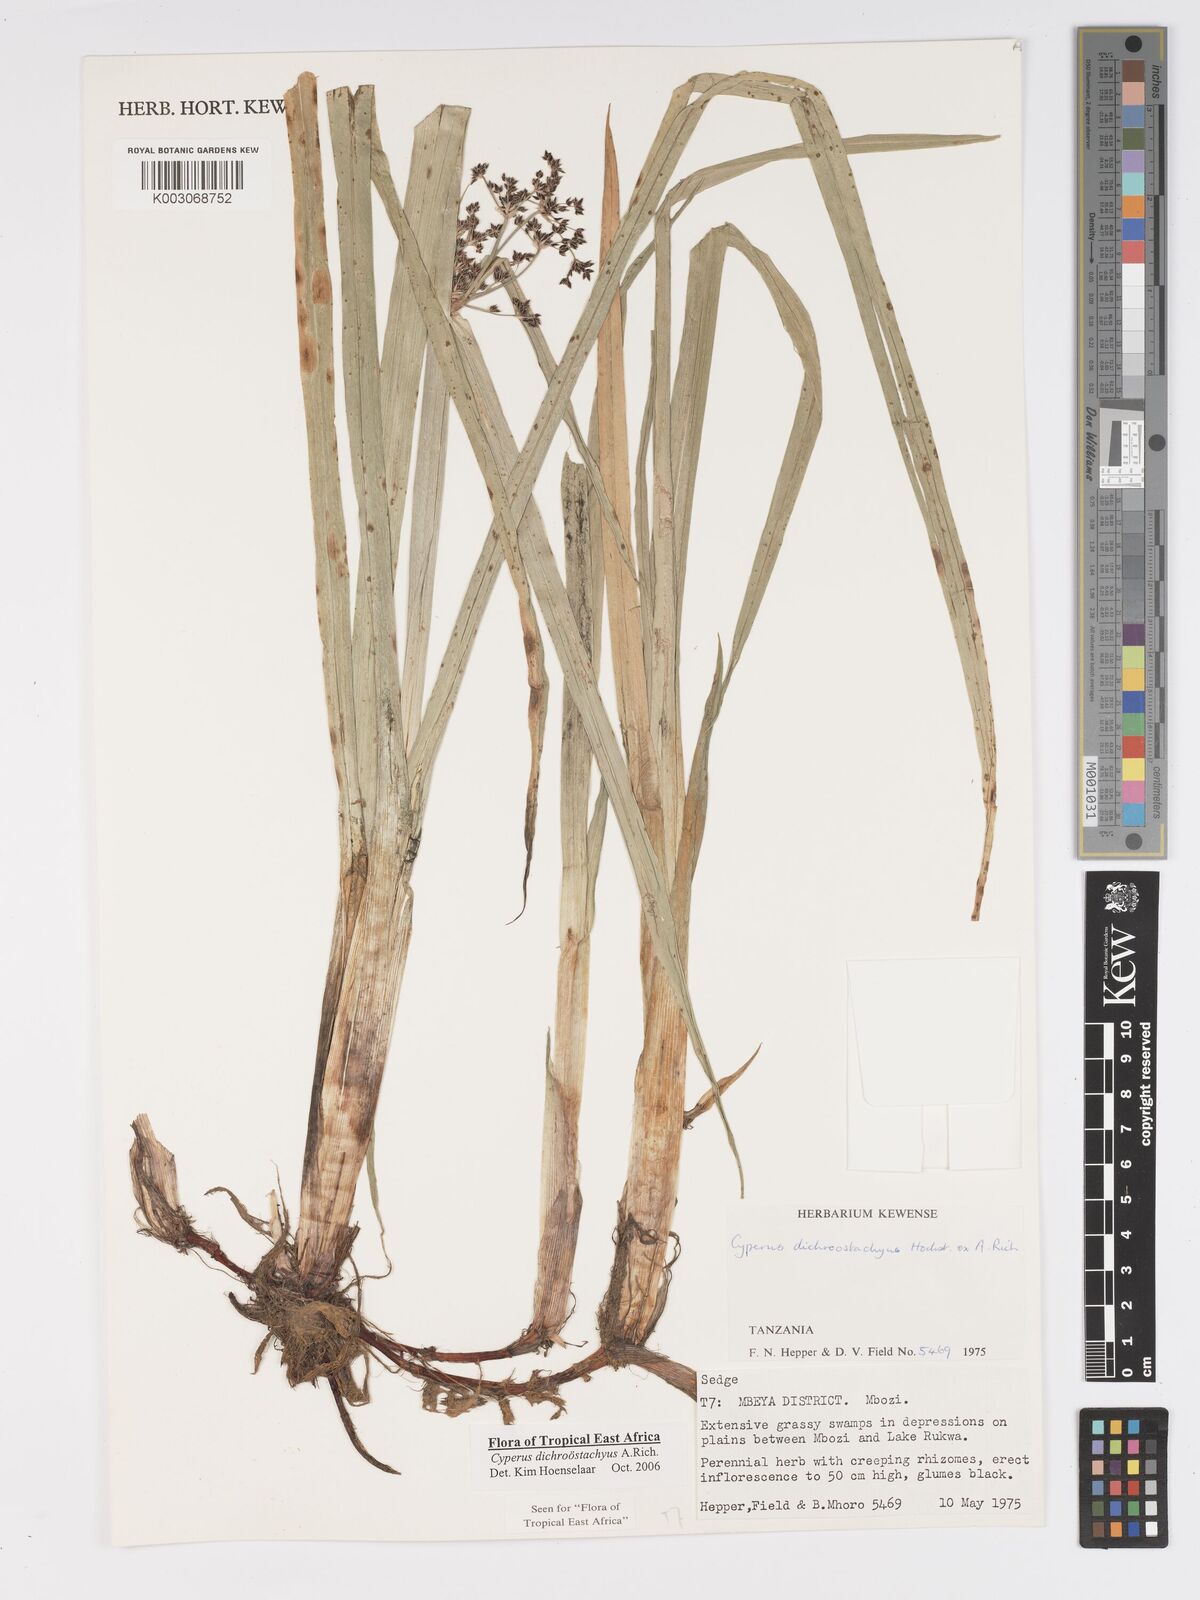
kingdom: Plantae
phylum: Tracheophyta
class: Liliopsida
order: Poales
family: Cyperaceae
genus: Cyperus
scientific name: Cyperus dichrostachyus
